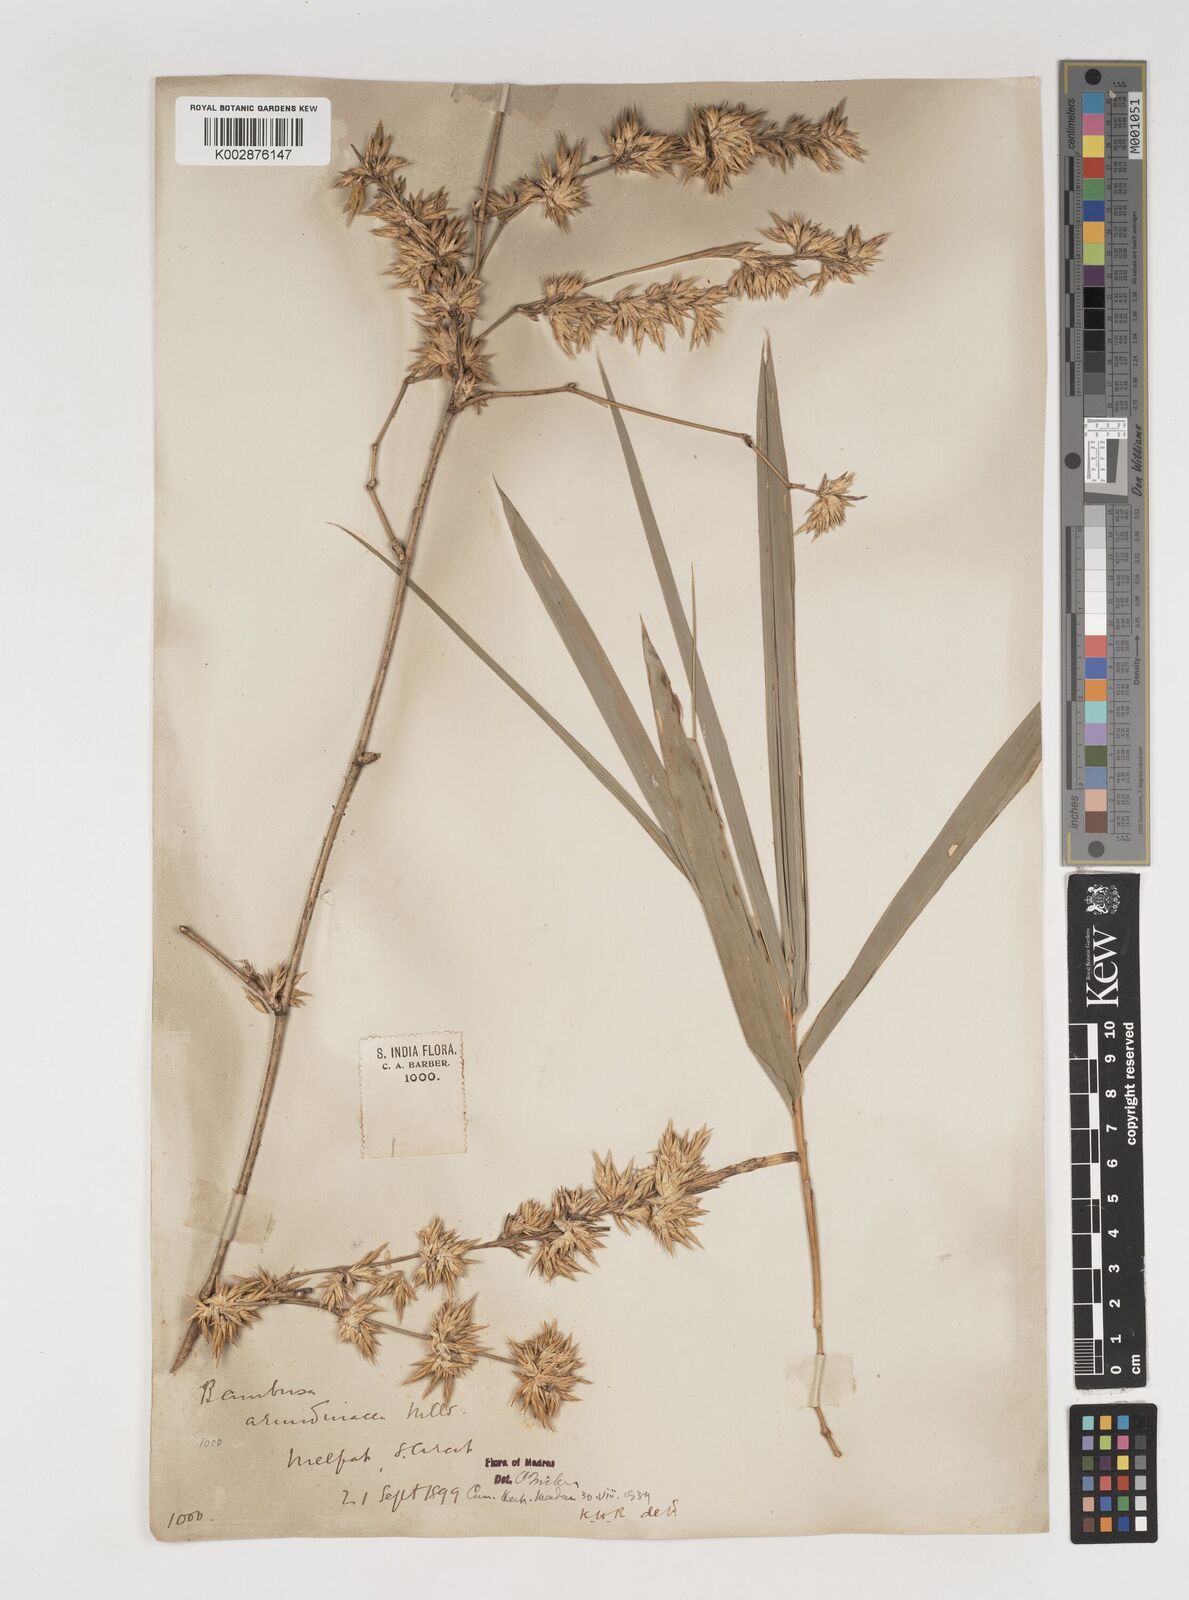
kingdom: Plantae
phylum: Tracheophyta
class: Liliopsida
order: Poales
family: Poaceae
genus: Bambusa
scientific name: Bambusa bambos
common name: Indian thorny bamboo
